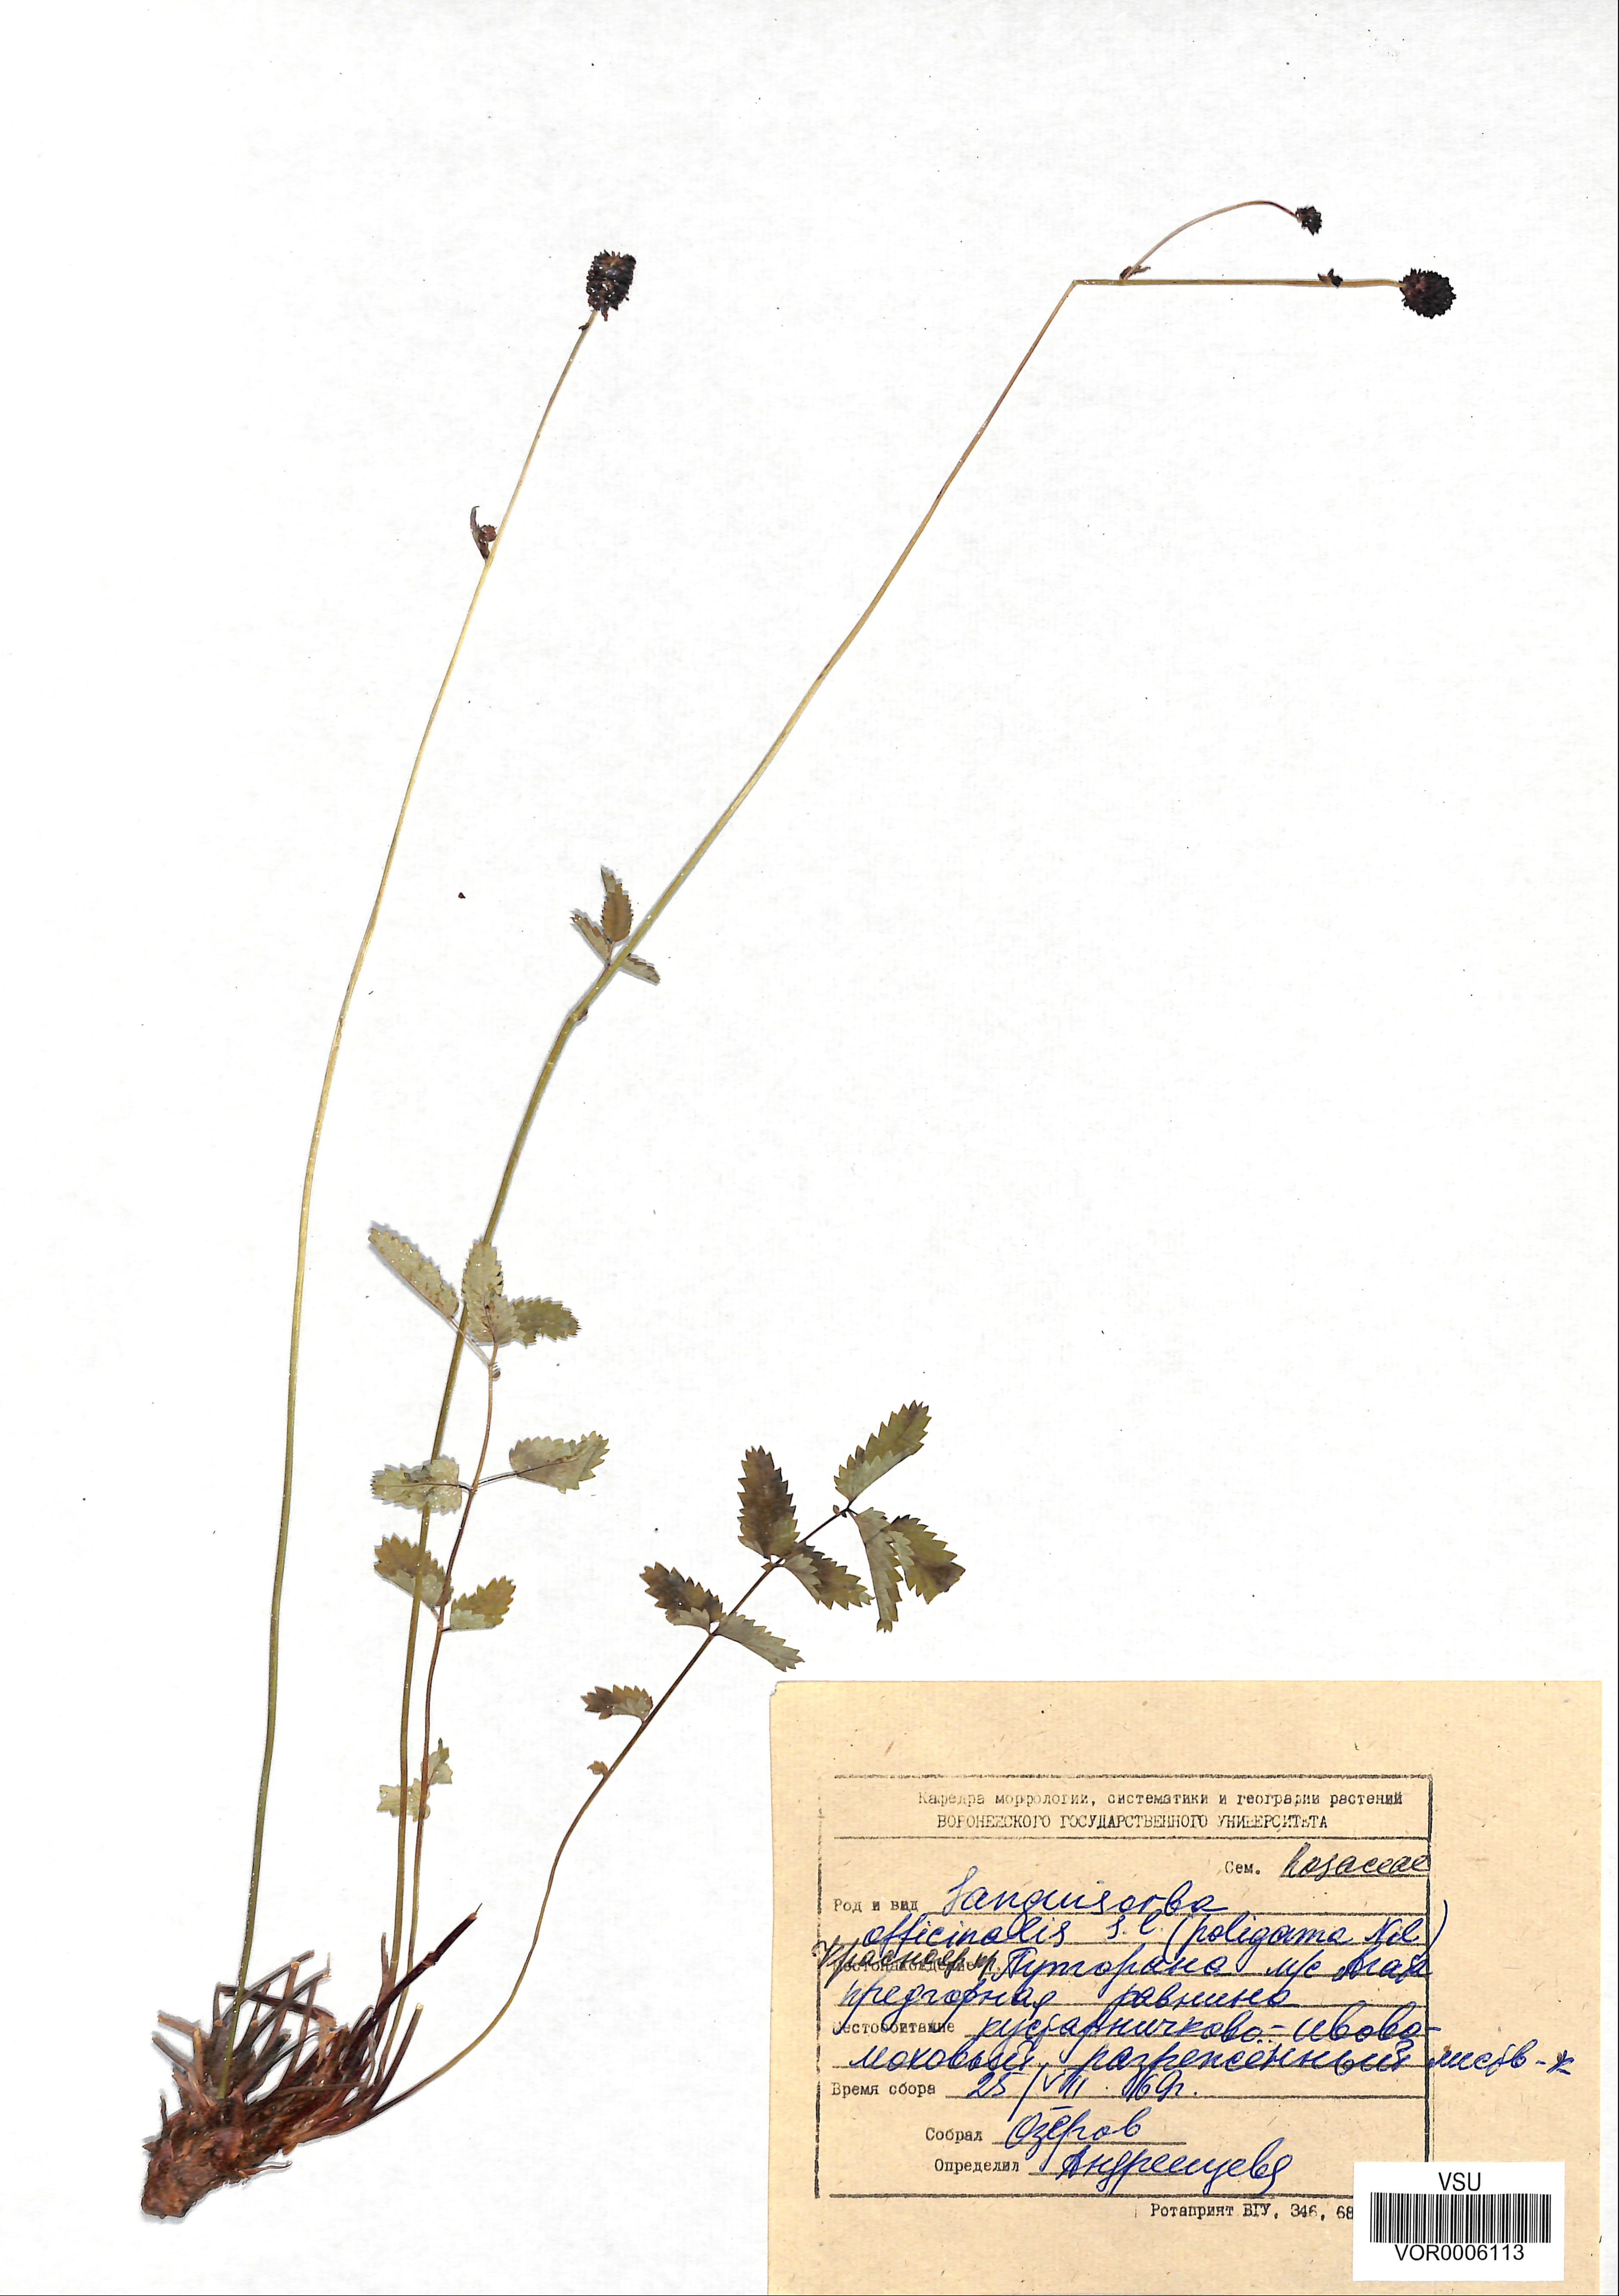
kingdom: Plantae
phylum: Tracheophyta
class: Magnoliopsida
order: Rosales
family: Rosaceae
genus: Sanguisorba
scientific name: Sanguisorba officinalis
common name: Great burnet
